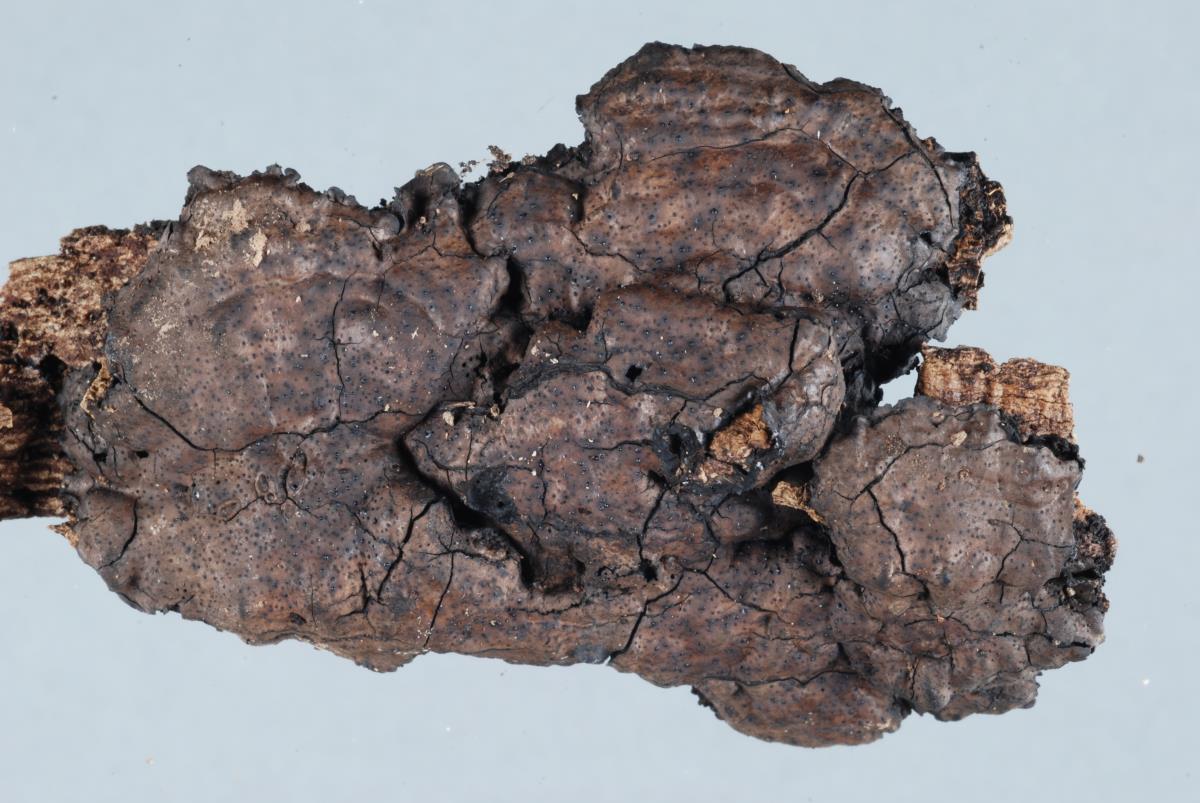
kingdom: Fungi
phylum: Ascomycota
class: Sordariomycetes
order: Xylariales
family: Xylariaceae
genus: Kretzschmaria
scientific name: Kretzschmaria pavimentosa
